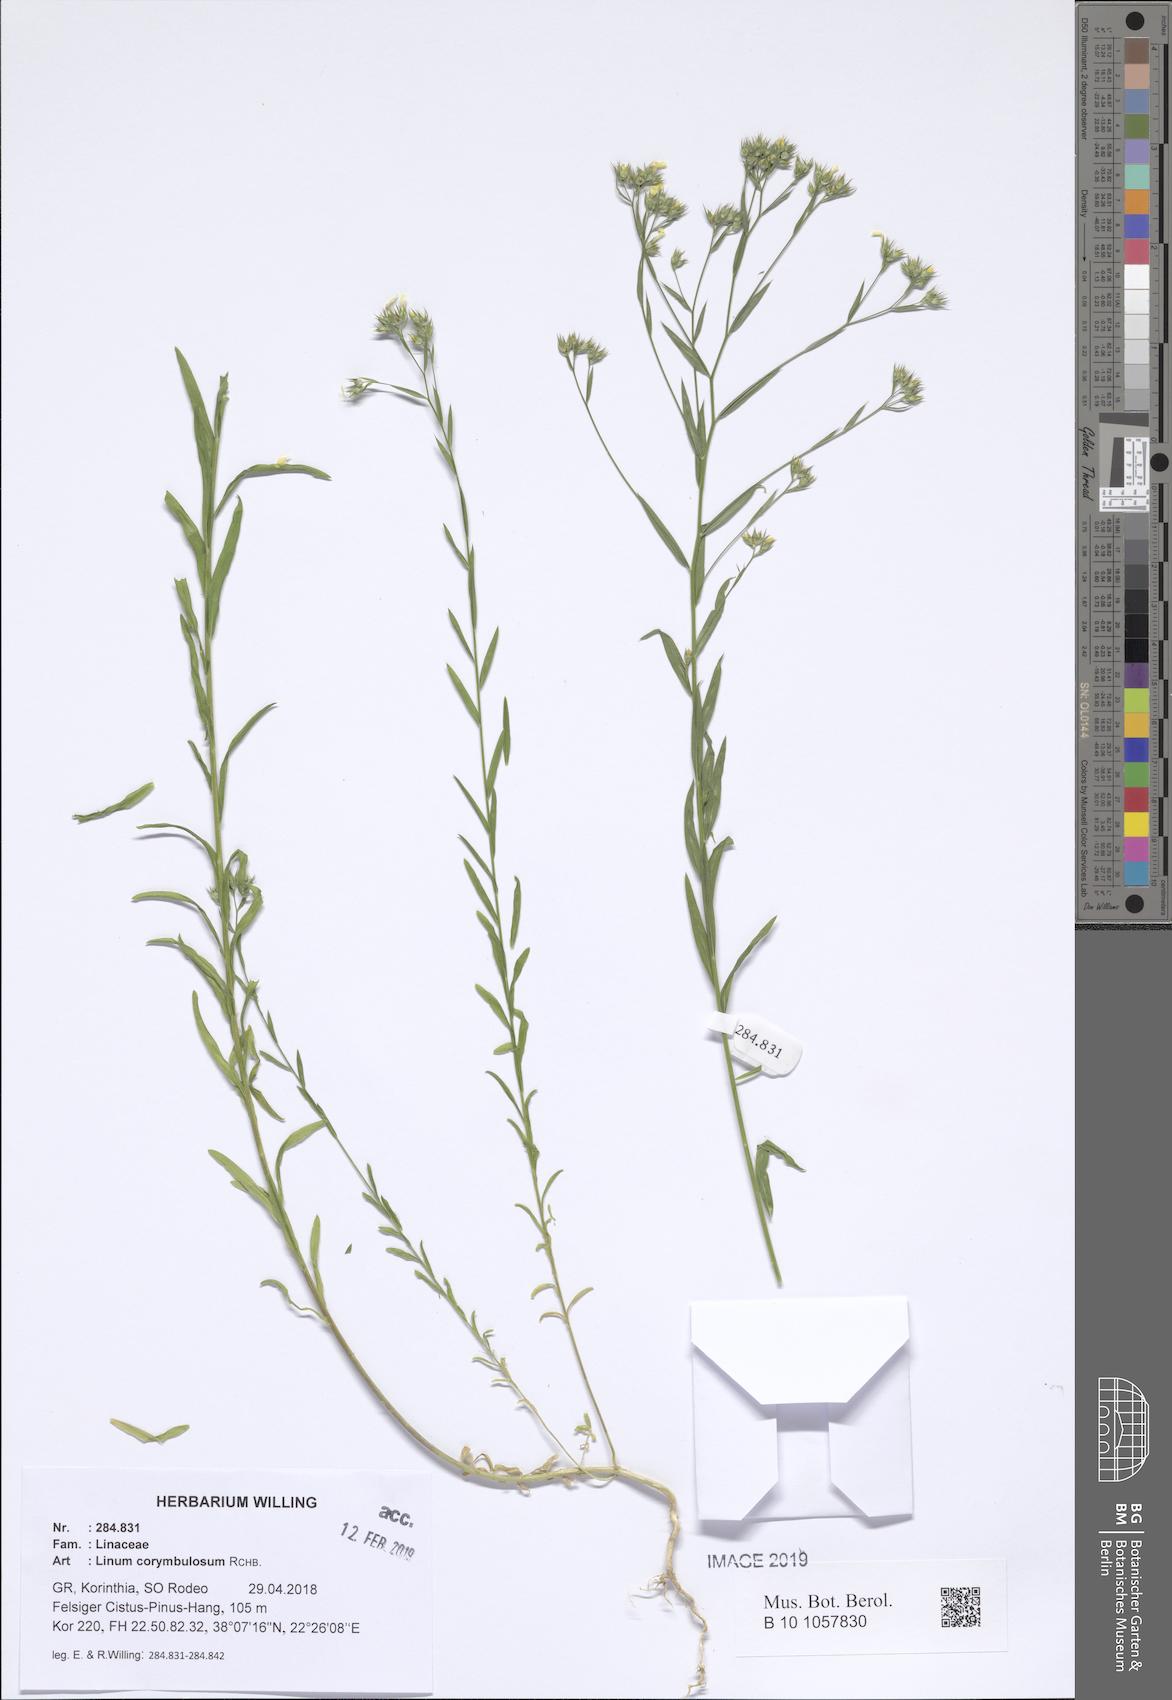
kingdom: Plantae
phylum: Tracheophyta
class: Magnoliopsida
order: Malpighiales
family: Linaceae
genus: Linum
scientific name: Linum corymbulosum
